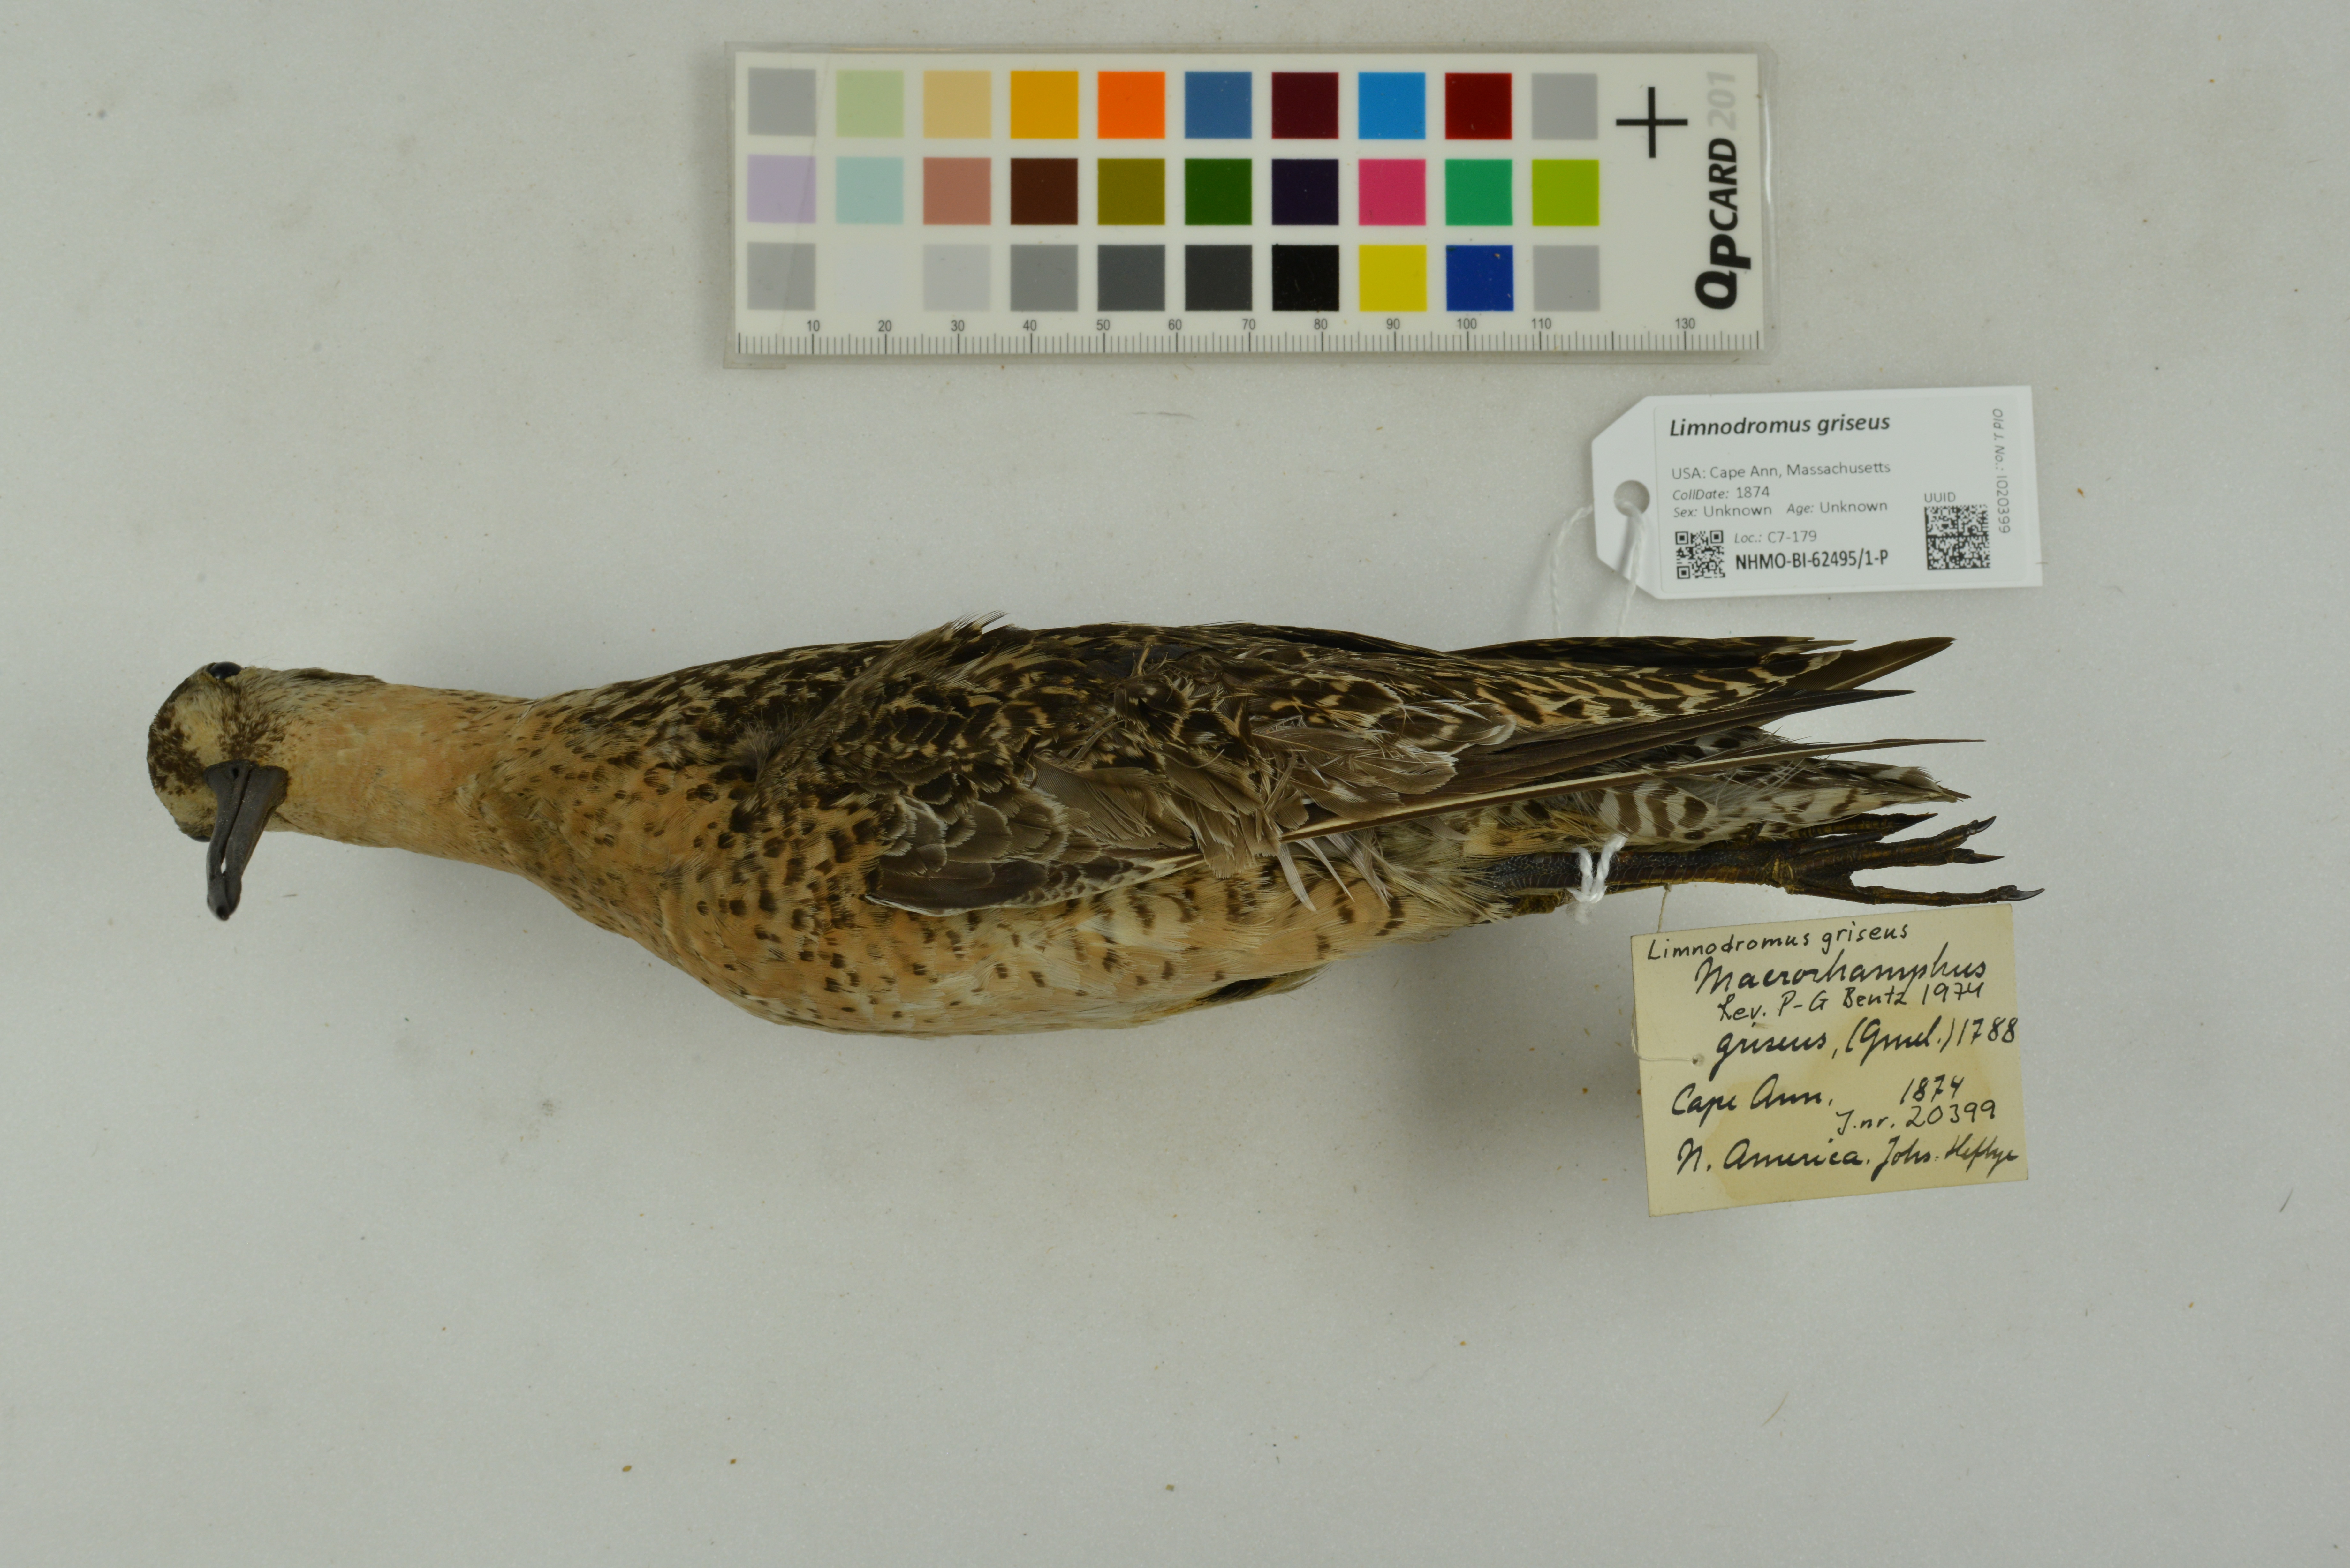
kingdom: Animalia
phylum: Chordata
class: Aves
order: Charadriiformes
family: Scolopacidae
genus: Limnodromus
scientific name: Limnodromus griseus
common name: Short-billed dowitcher
